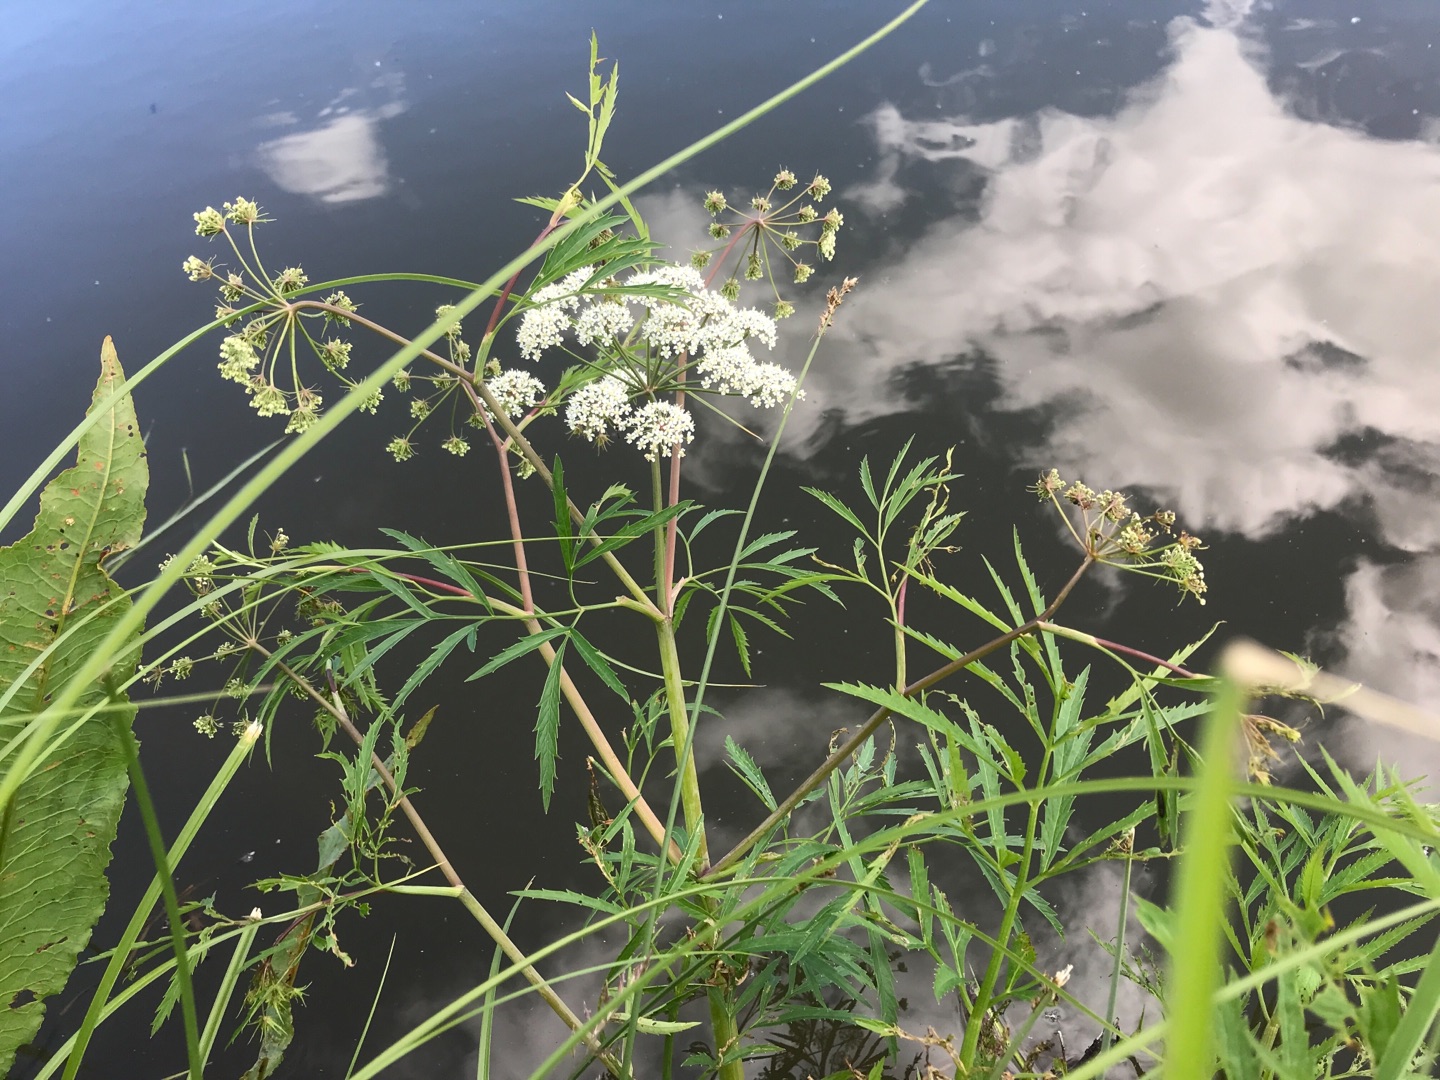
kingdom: Plantae
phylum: Tracheophyta
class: Magnoliopsida
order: Apiales
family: Apiaceae
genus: Cicuta
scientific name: Cicuta virosa
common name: Gifttyde
